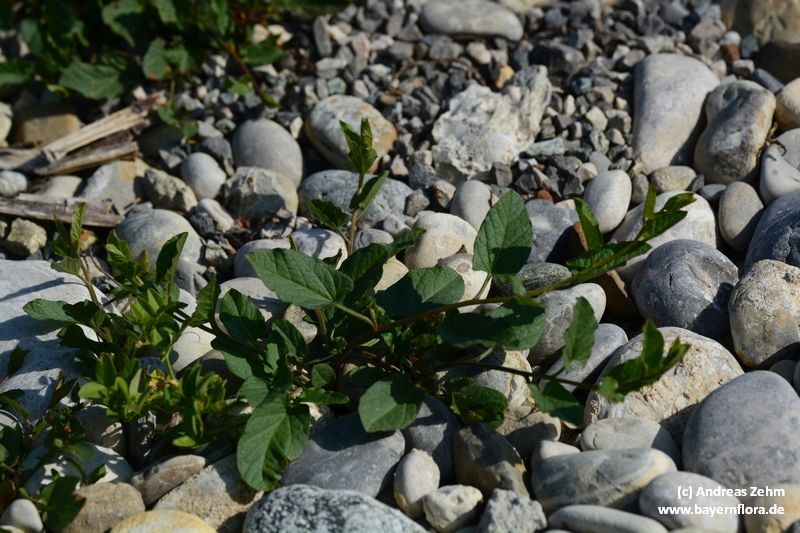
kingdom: Plantae
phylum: Tracheophyta
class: Magnoliopsida
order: Solanales
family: Convolvulaceae
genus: Convolvulus
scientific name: Convolvulus arvensis
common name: Field bindweed
